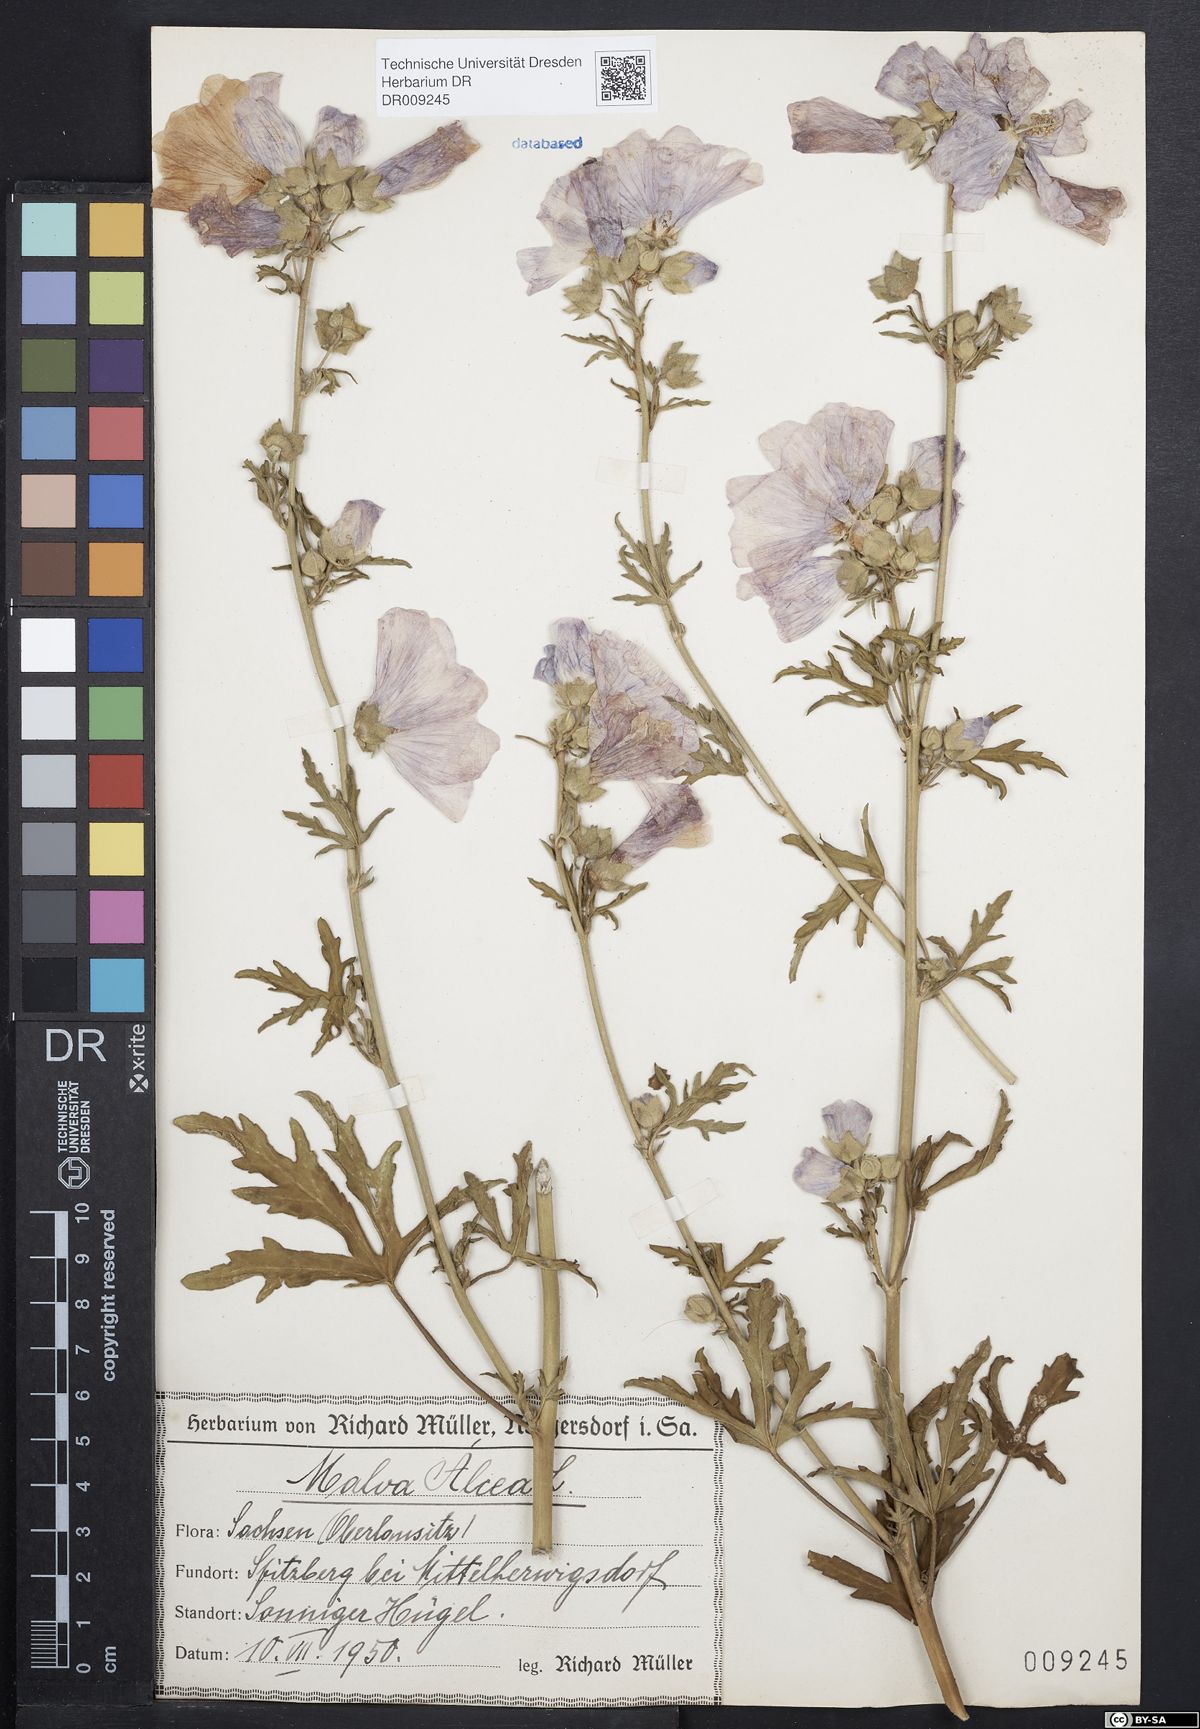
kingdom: Plantae
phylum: Tracheophyta
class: Magnoliopsida
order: Malvales
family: Malvaceae
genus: Malva
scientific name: Malva alcea
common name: Greater musk-mallow
